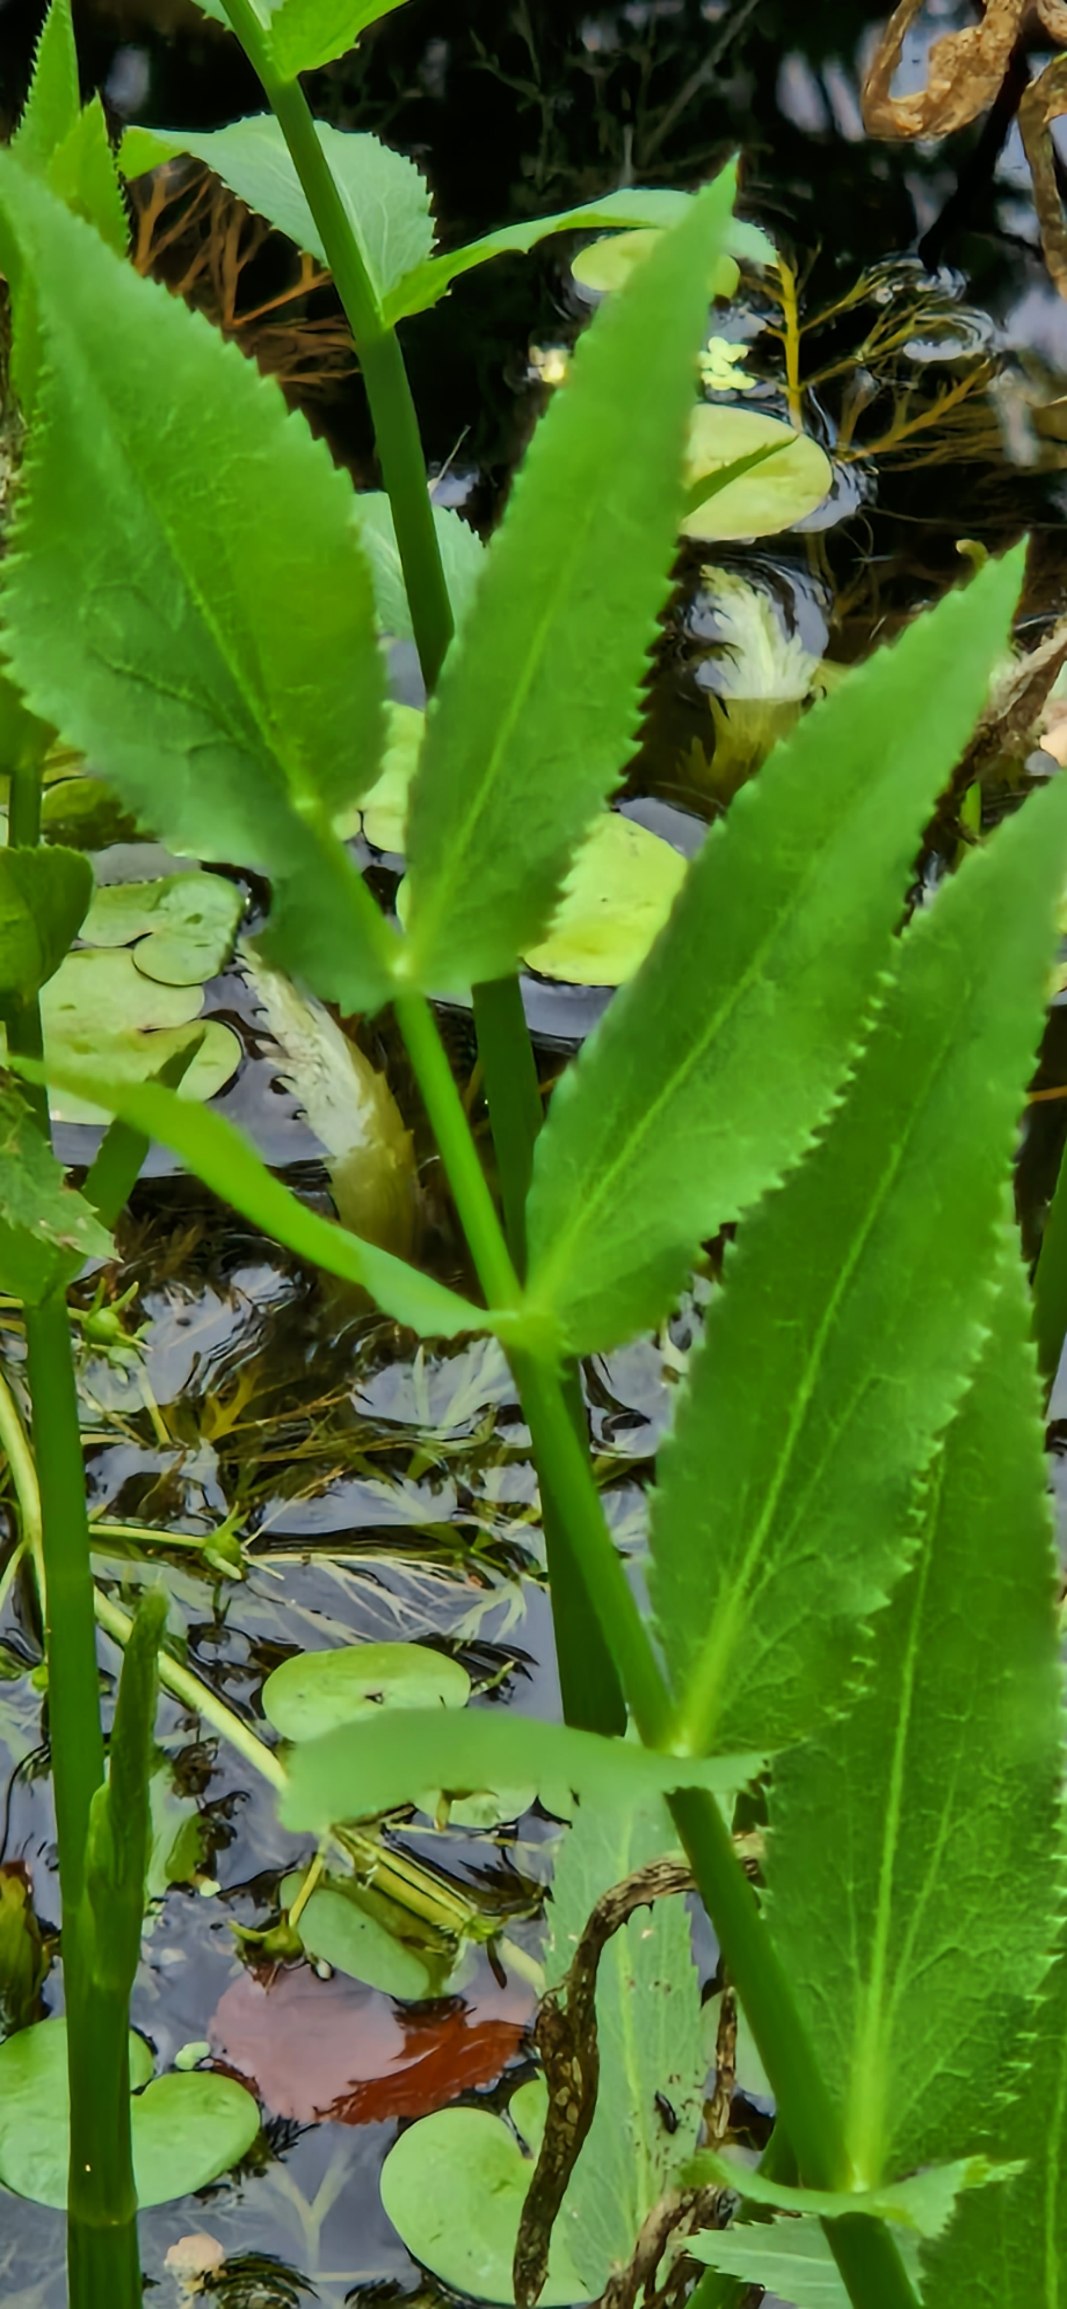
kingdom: Plantae
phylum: Tracheophyta
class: Magnoliopsida
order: Apiales
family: Apiaceae
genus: Sium
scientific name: Sium latifolium
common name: Bredbladet mærke
